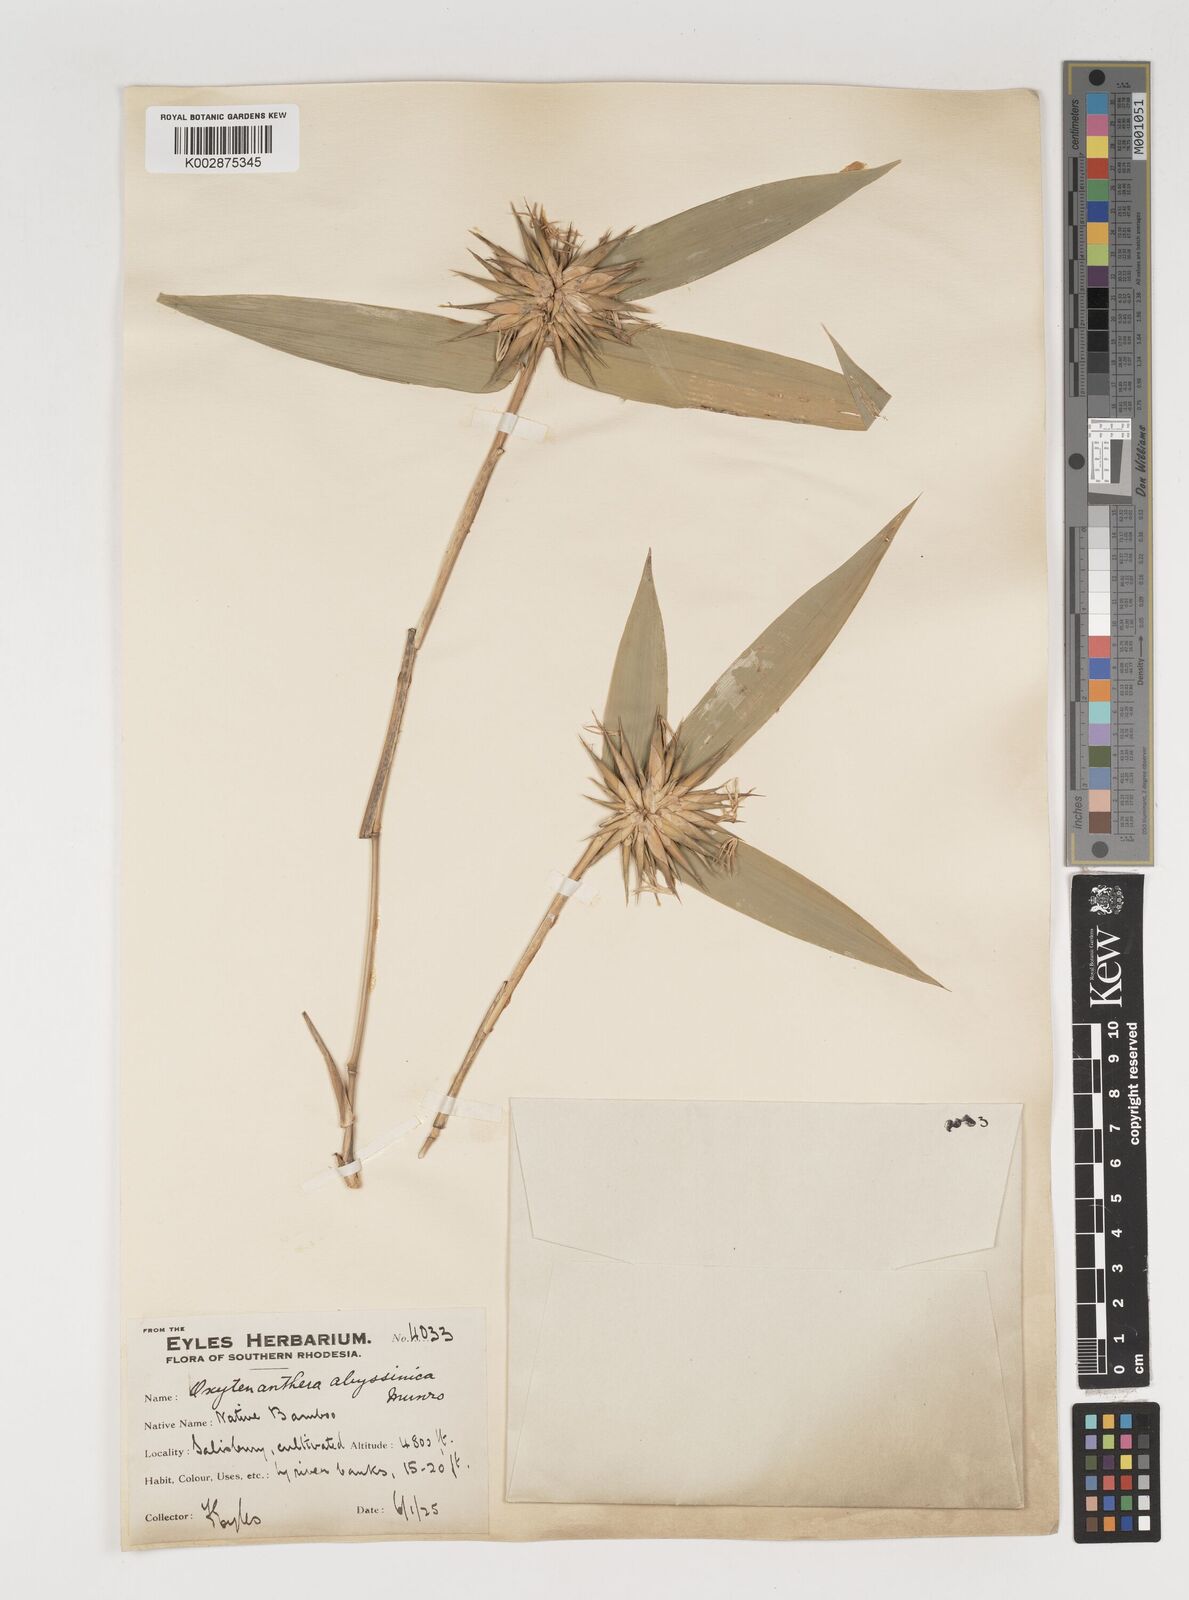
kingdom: Plantae
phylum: Tracheophyta
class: Liliopsida
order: Poales
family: Poaceae
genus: Oxytenanthera
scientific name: Oxytenanthera abyssinica
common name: Wine bamboo
